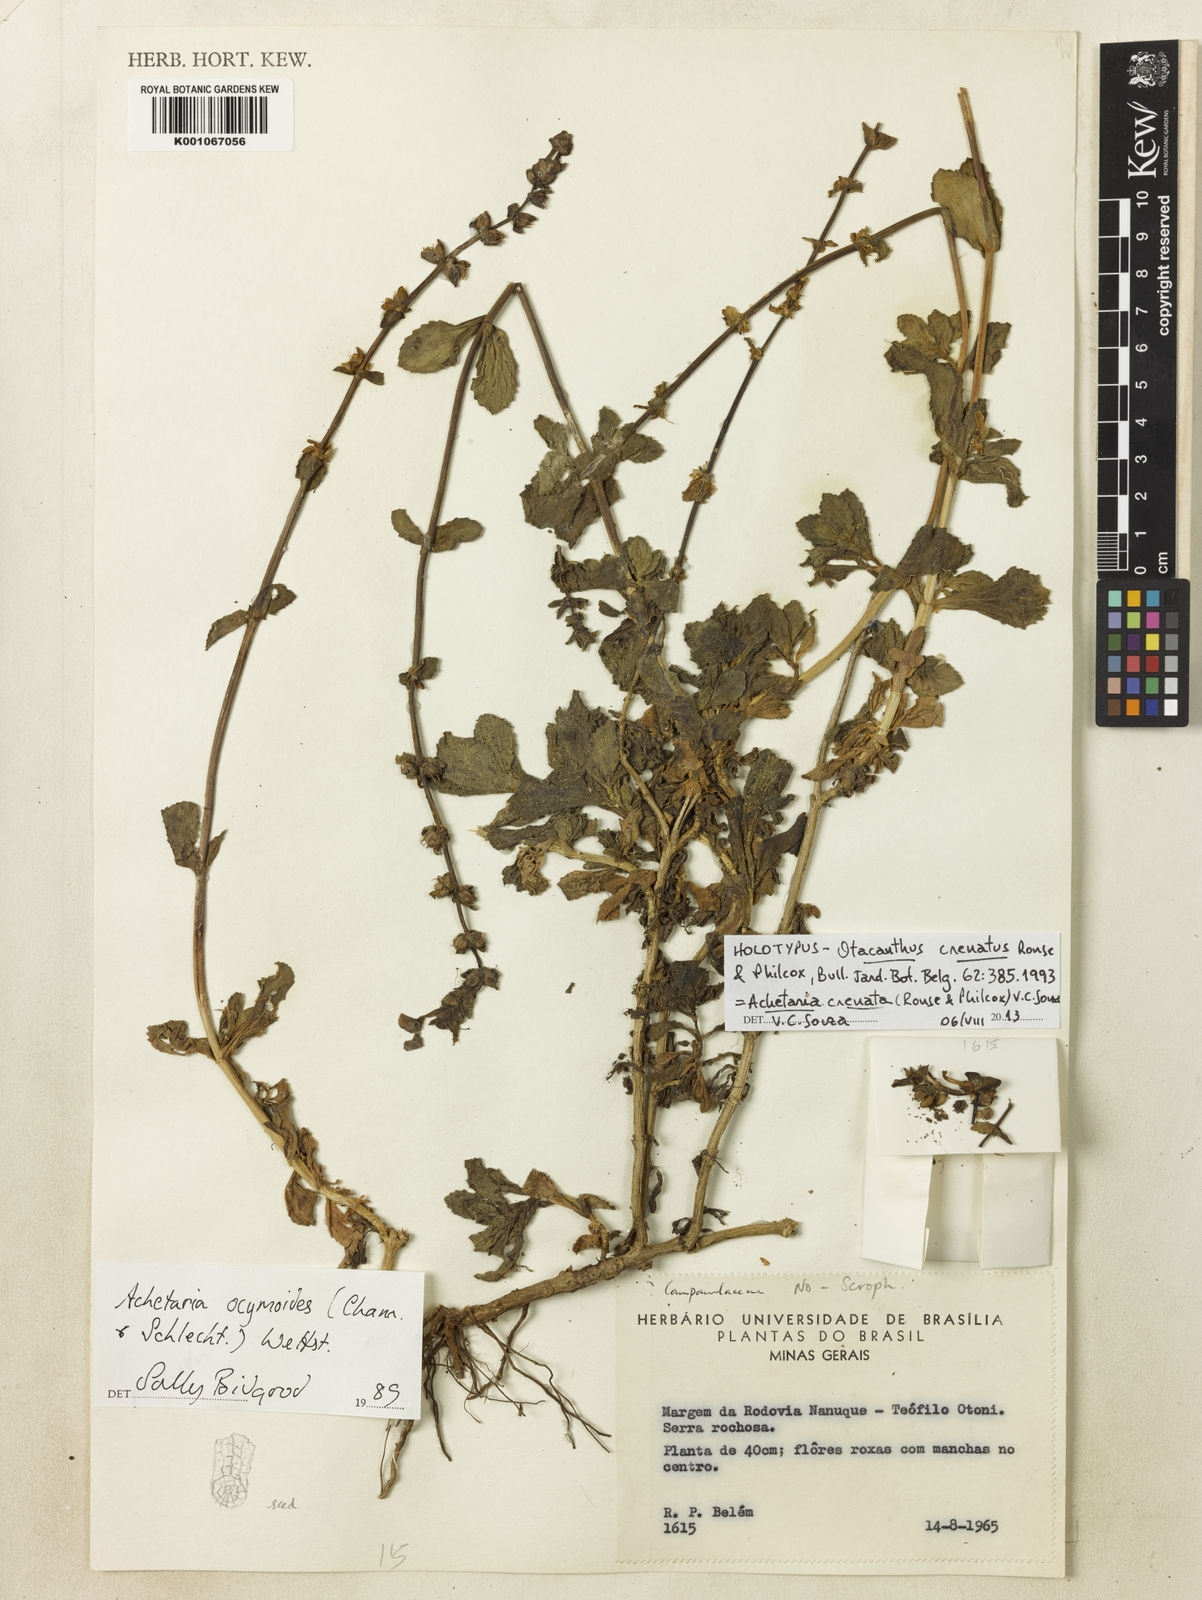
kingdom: Plantae
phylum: Tracheophyta
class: Magnoliopsida
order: Lamiales
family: Plantaginaceae
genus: Matourea
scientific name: Matourea crenata
